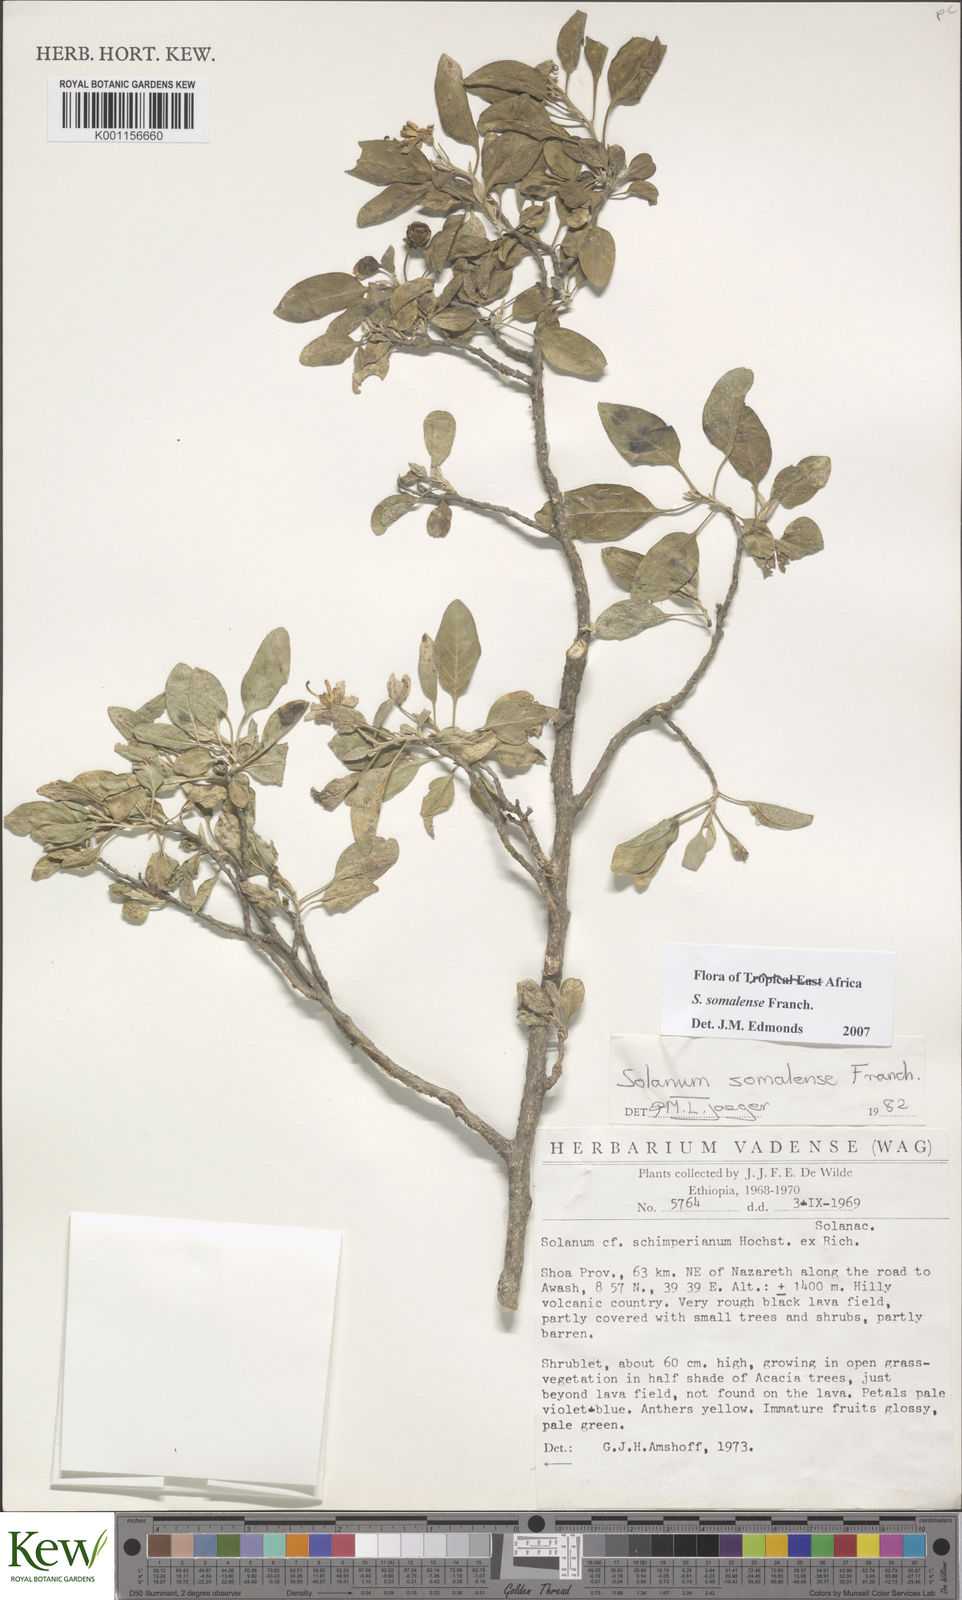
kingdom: Plantae
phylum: Tracheophyta
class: Magnoliopsida
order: Solanales
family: Solanaceae
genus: Solanum
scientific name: Solanum somalense
